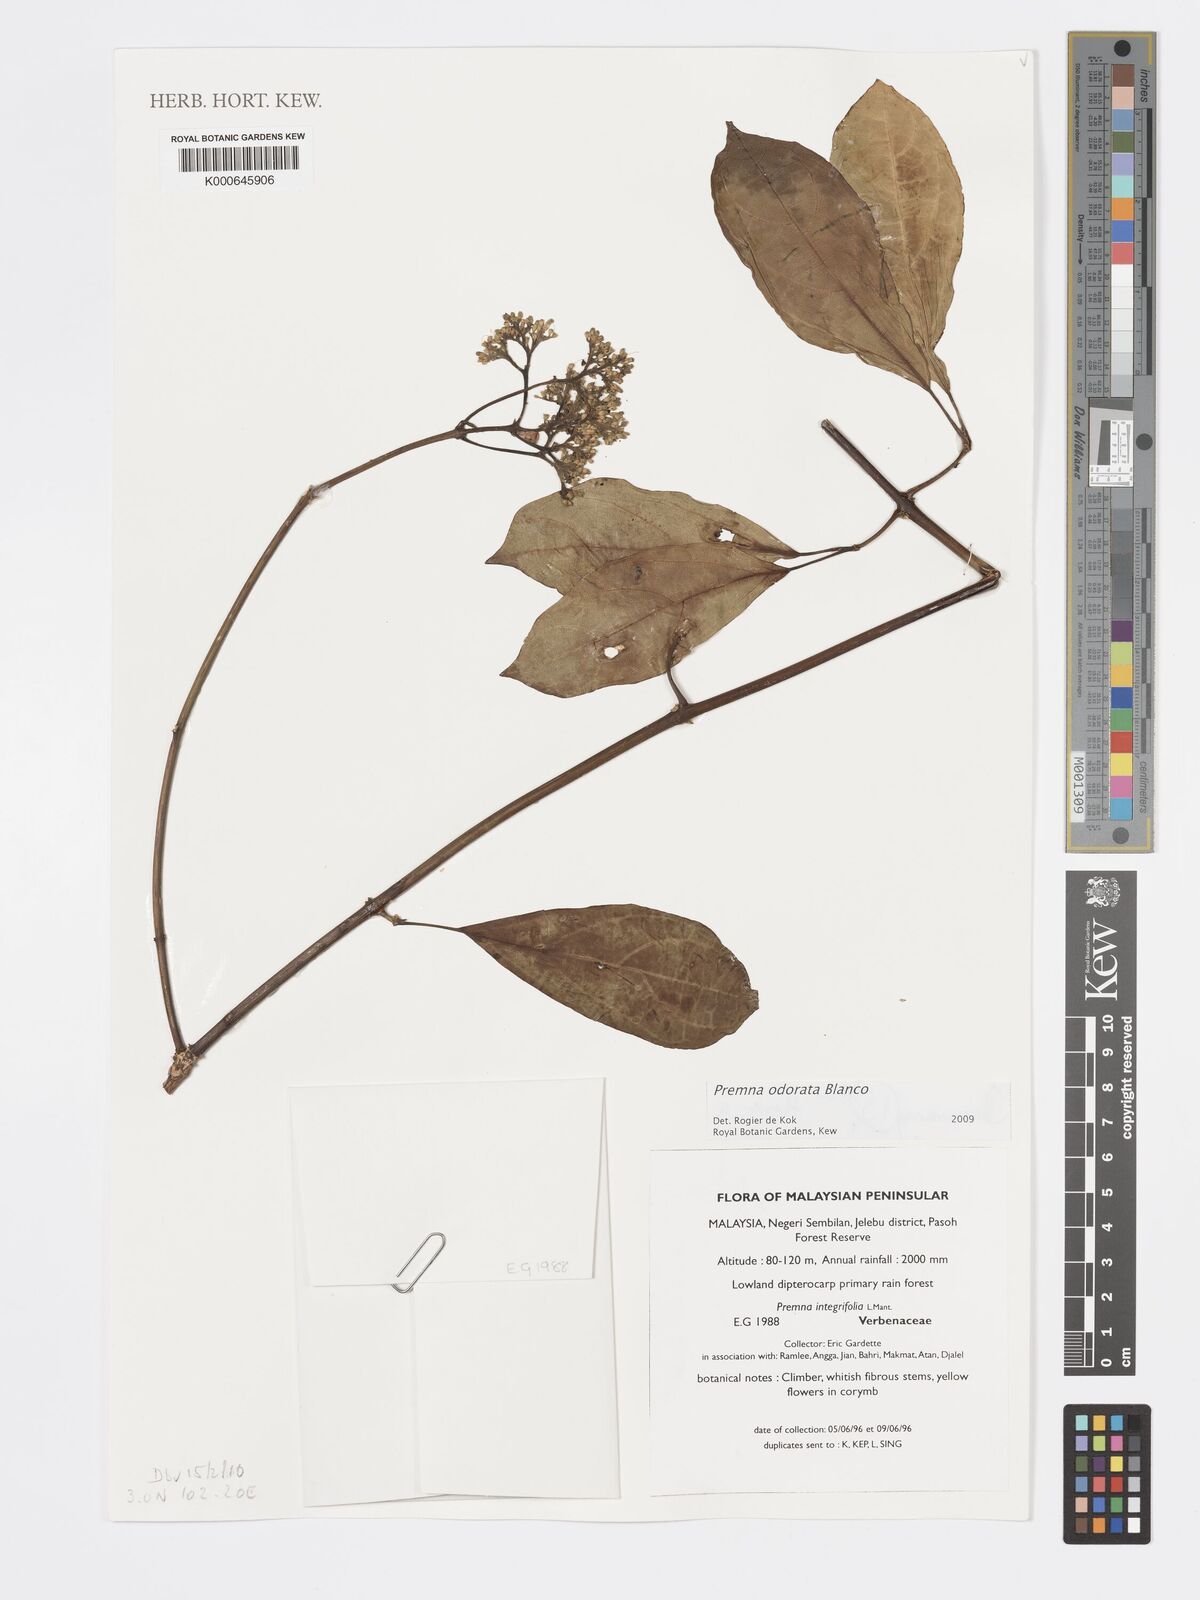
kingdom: Plantae
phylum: Tracheophyta
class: Magnoliopsida
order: Lamiales
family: Lamiaceae
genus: Premna
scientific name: Premna odorata
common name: Fragrant premna
